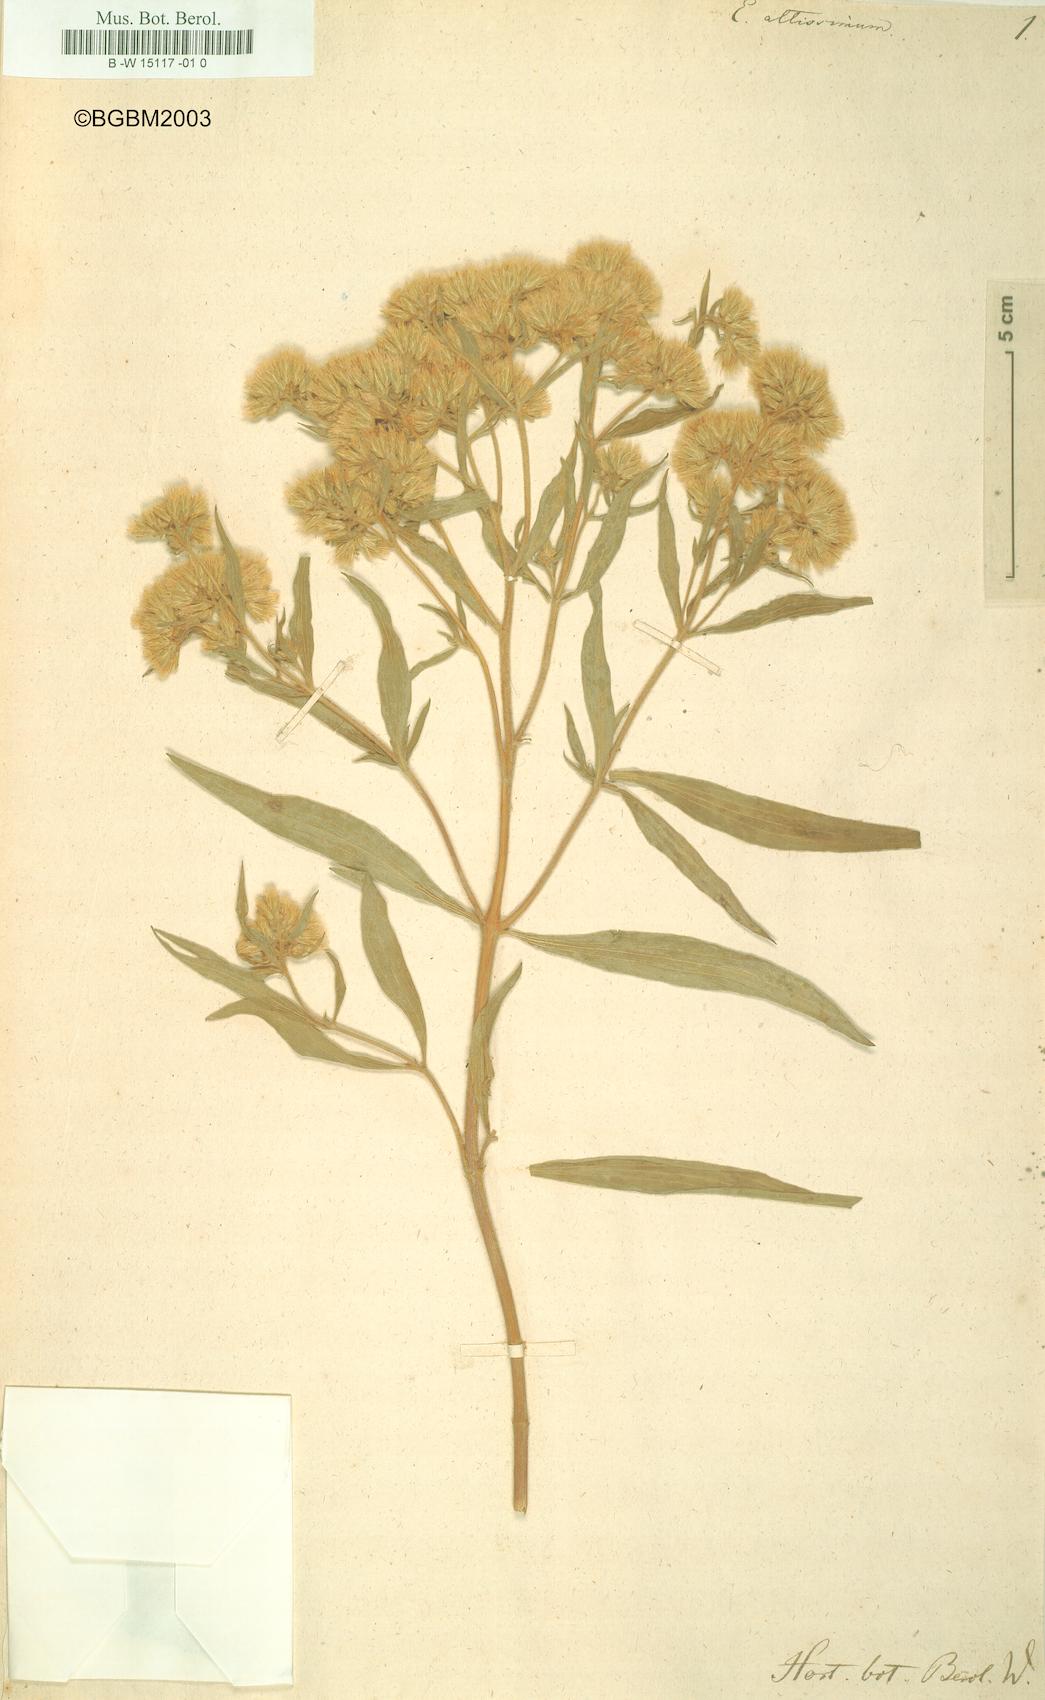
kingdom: Plantae
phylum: Tracheophyta
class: Magnoliopsida
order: Asterales
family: Asteraceae
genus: Eupatorium
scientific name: Eupatorium altissimum
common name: Tall thoroughwort
